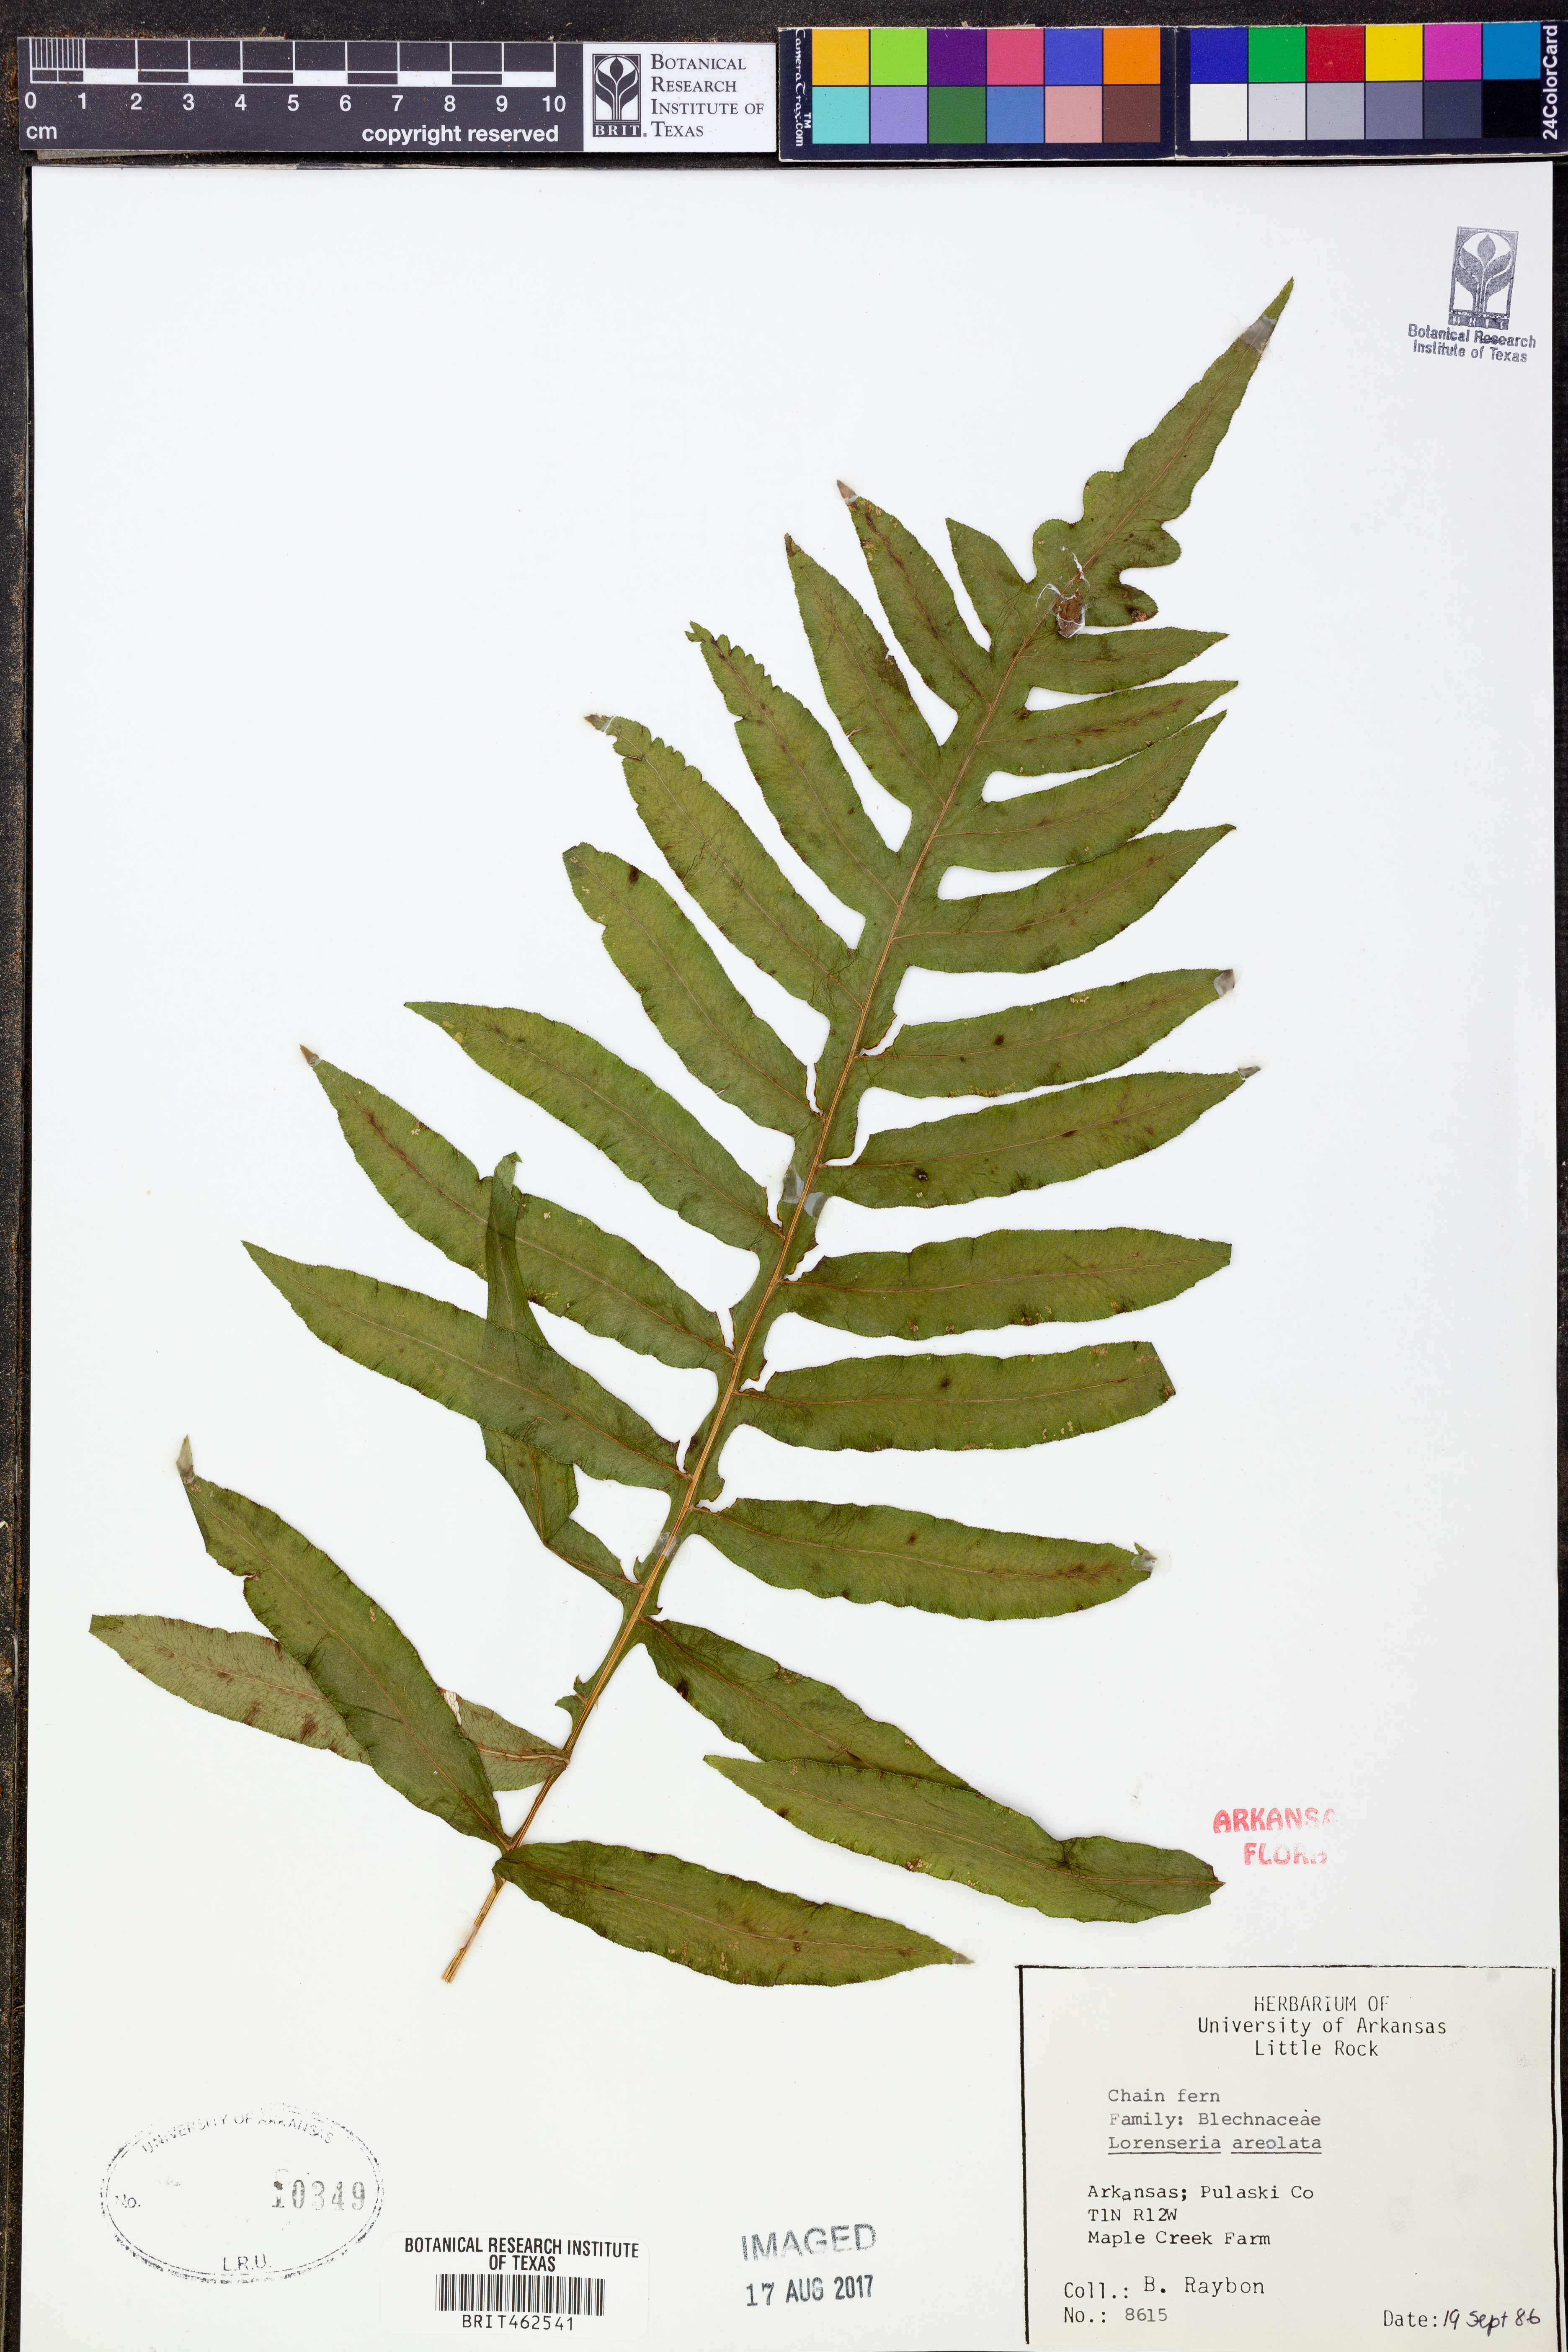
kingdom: Plantae
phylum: Tracheophyta
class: Polypodiopsida
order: Polypodiales
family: Blechnaceae
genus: Lorinseria
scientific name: Lorinseria areolata
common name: Dwarf chain fern
